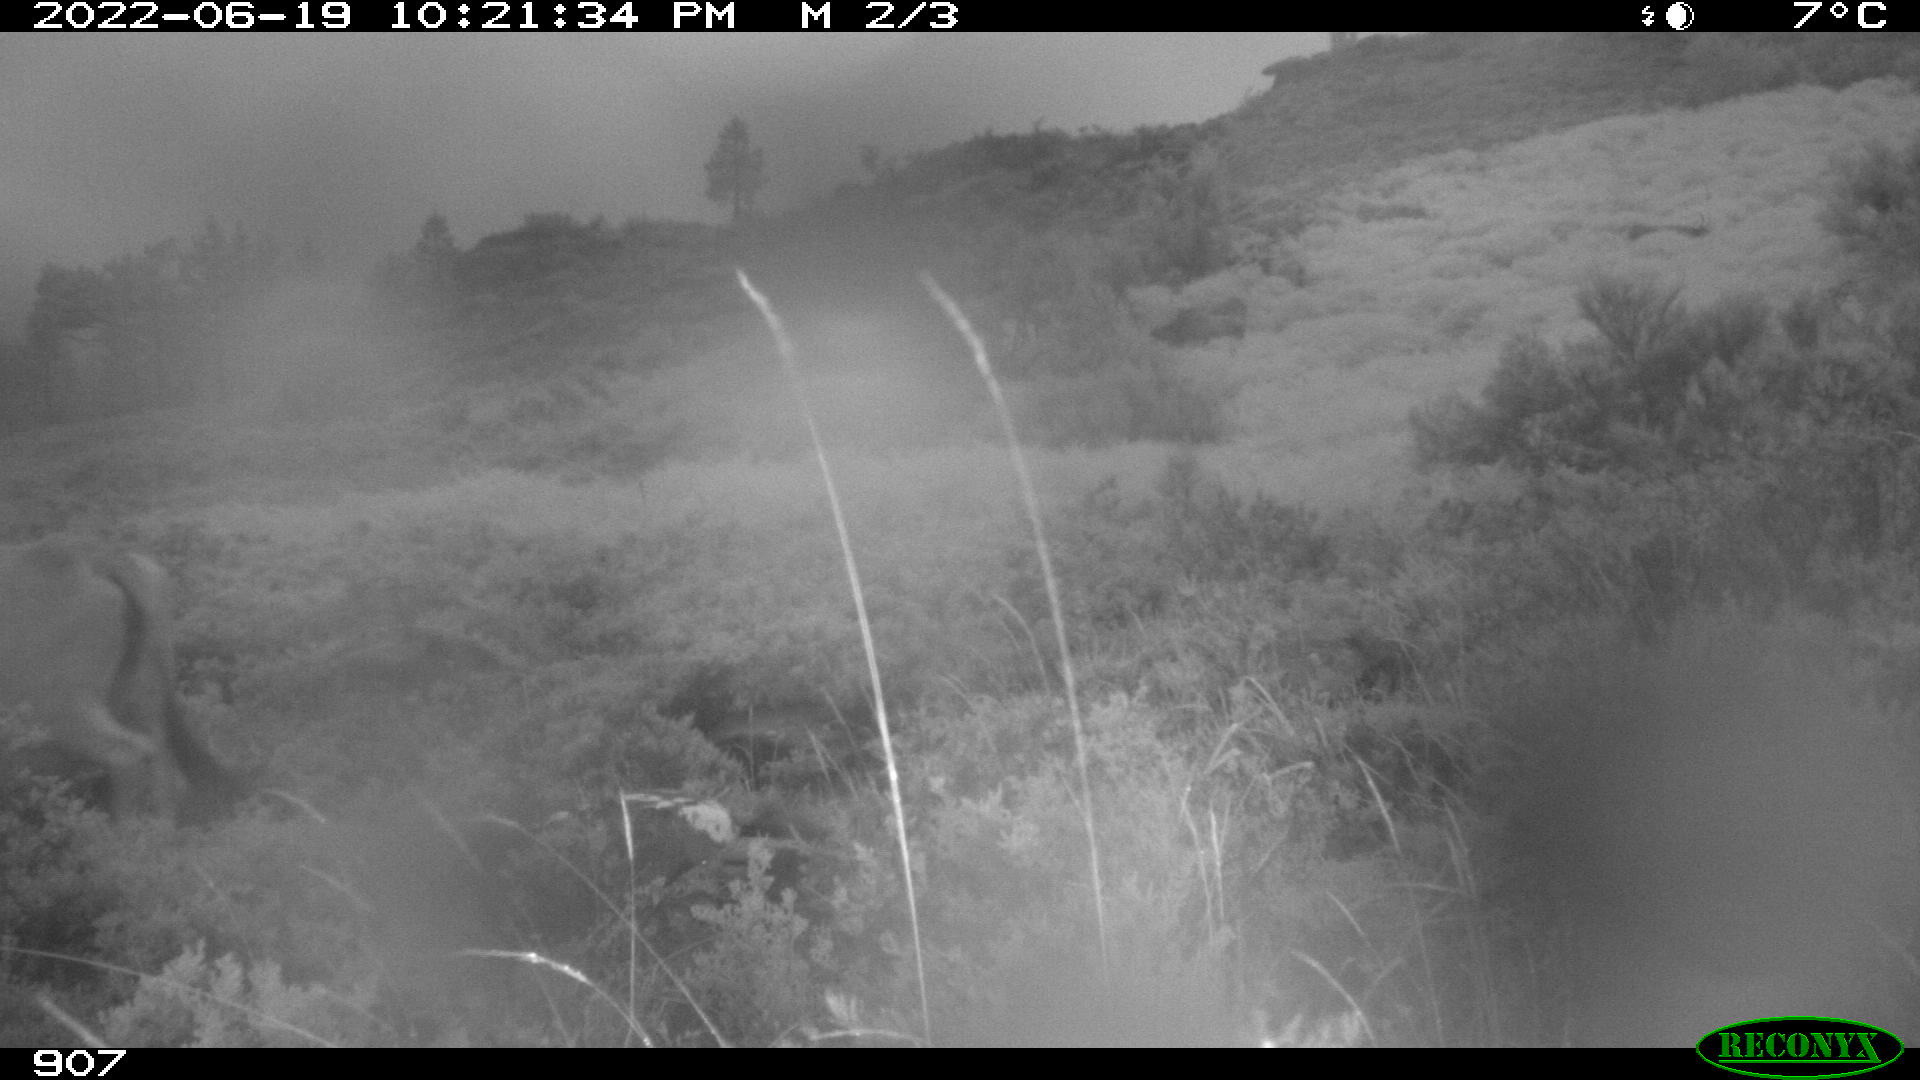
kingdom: Animalia
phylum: Chordata
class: Mammalia
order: Artiodactyla
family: Bovidae
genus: Bos
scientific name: Bos taurus
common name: Domesticated cattle
